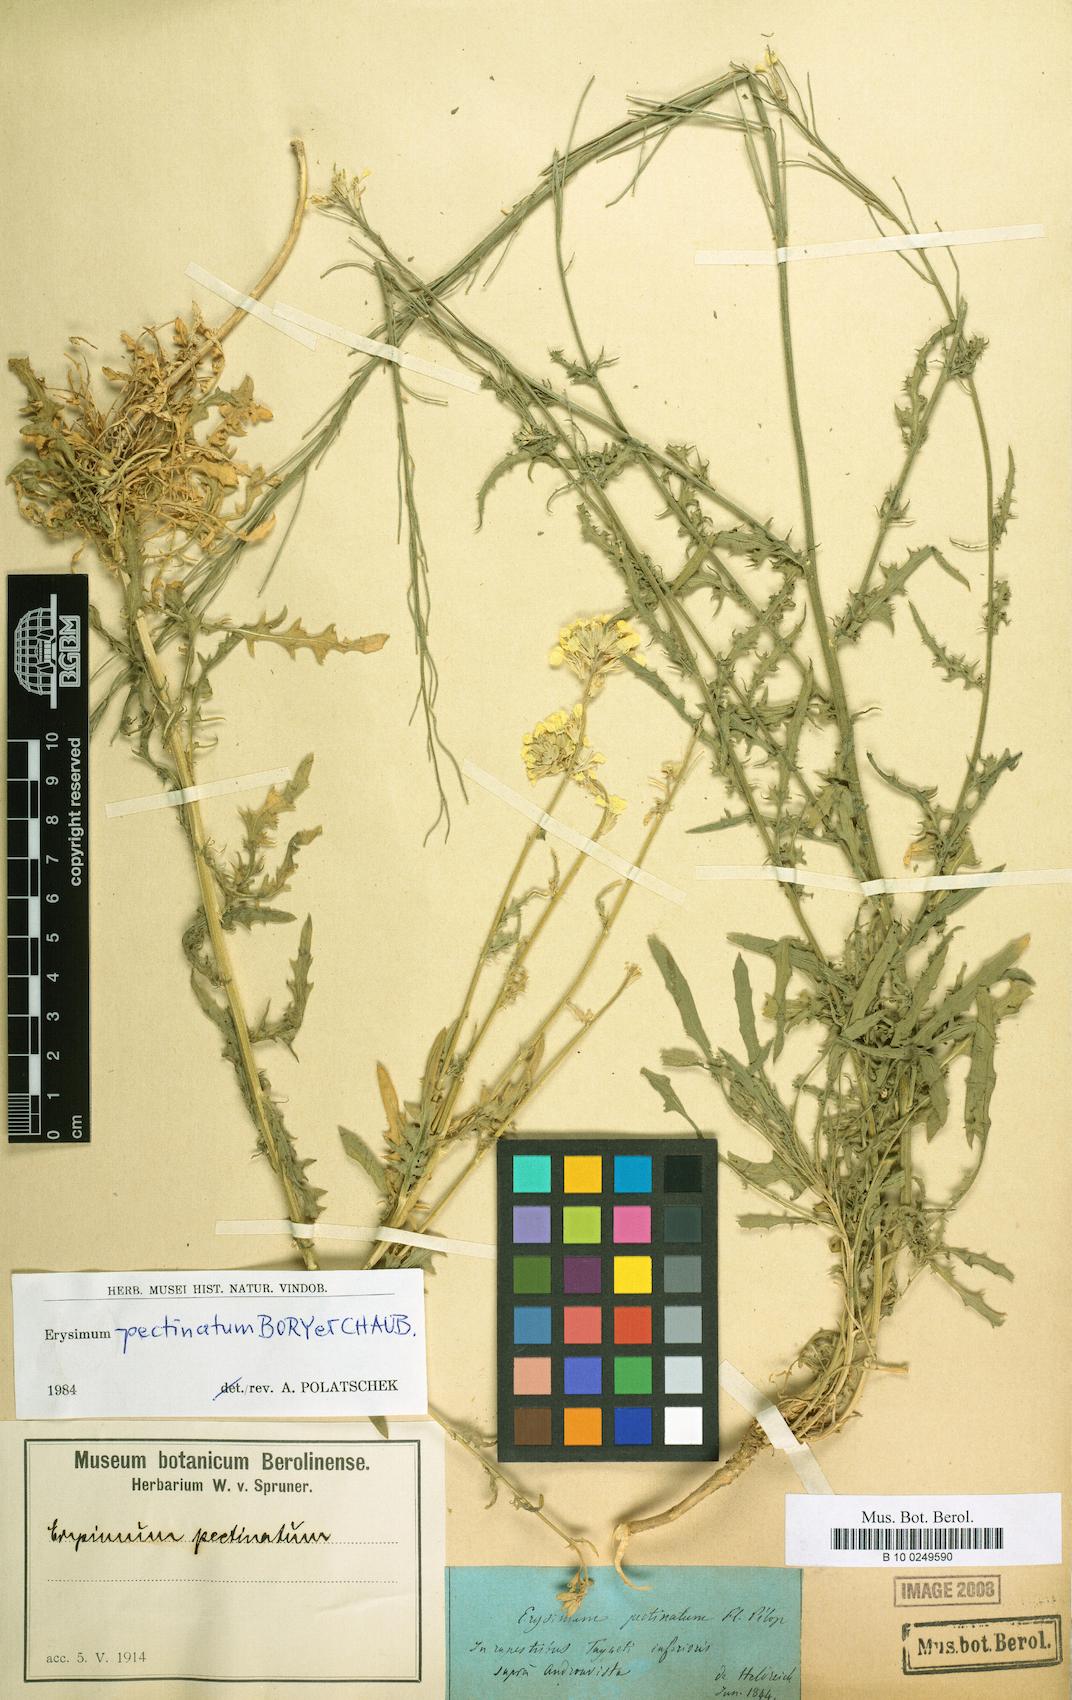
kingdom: Plantae
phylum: Tracheophyta
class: Magnoliopsida
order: Brassicales
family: Brassicaceae
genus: Erysimum
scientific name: Erysimum pectinatum
